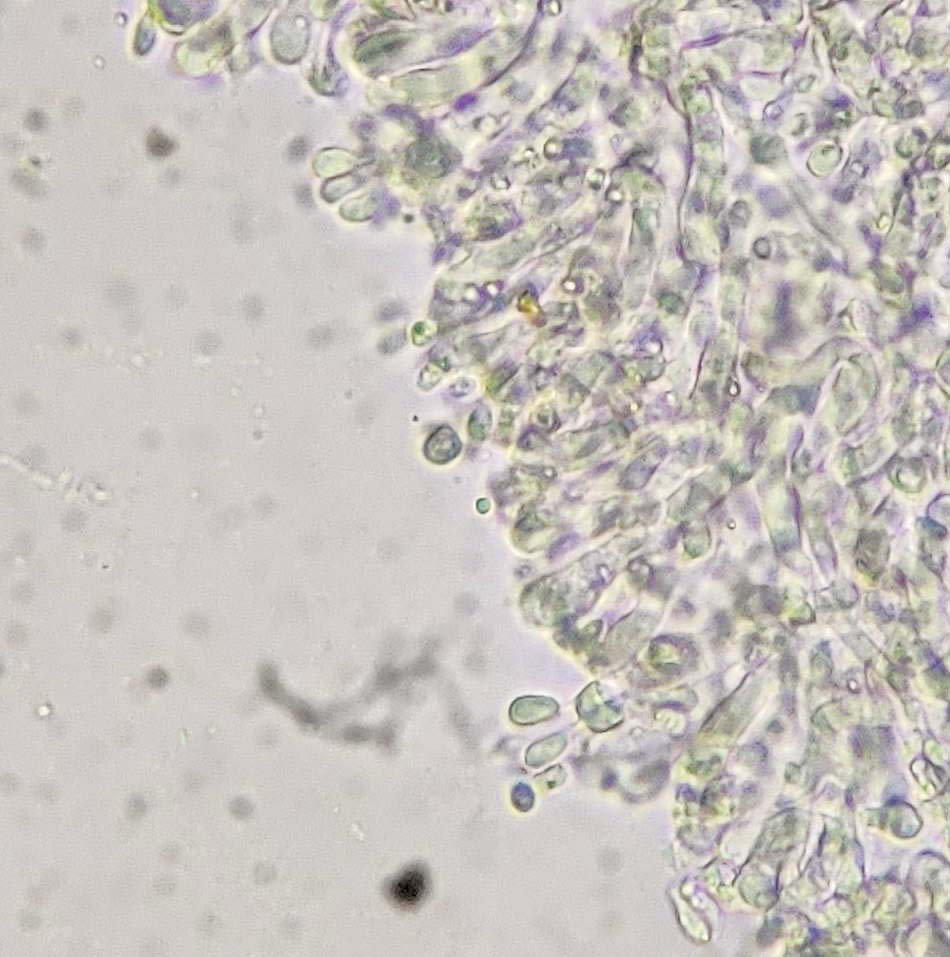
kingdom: Fungi
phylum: Basidiomycota
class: Agaricomycetes
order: Agaricales
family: Hygrophoraceae
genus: Arrhenia
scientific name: Arrhenia glauca
